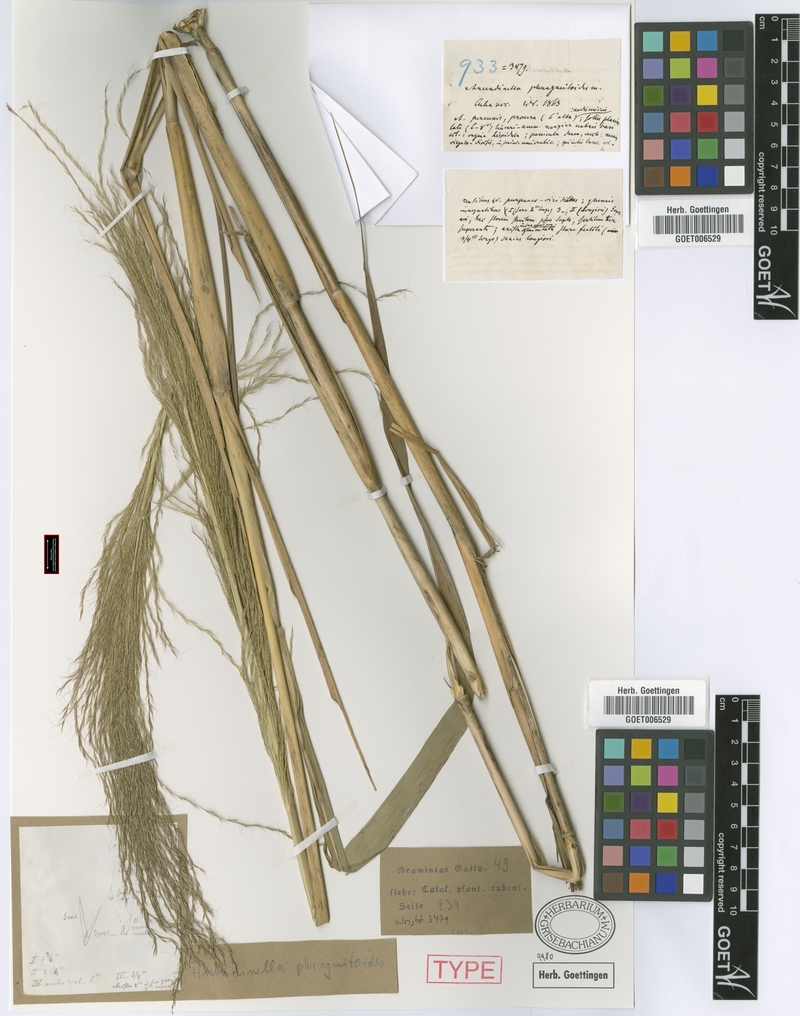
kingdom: Plantae
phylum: Tracheophyta
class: Liliopsida
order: Poales
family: Poaceae
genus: Arundinella
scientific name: Arundinella deppeana
